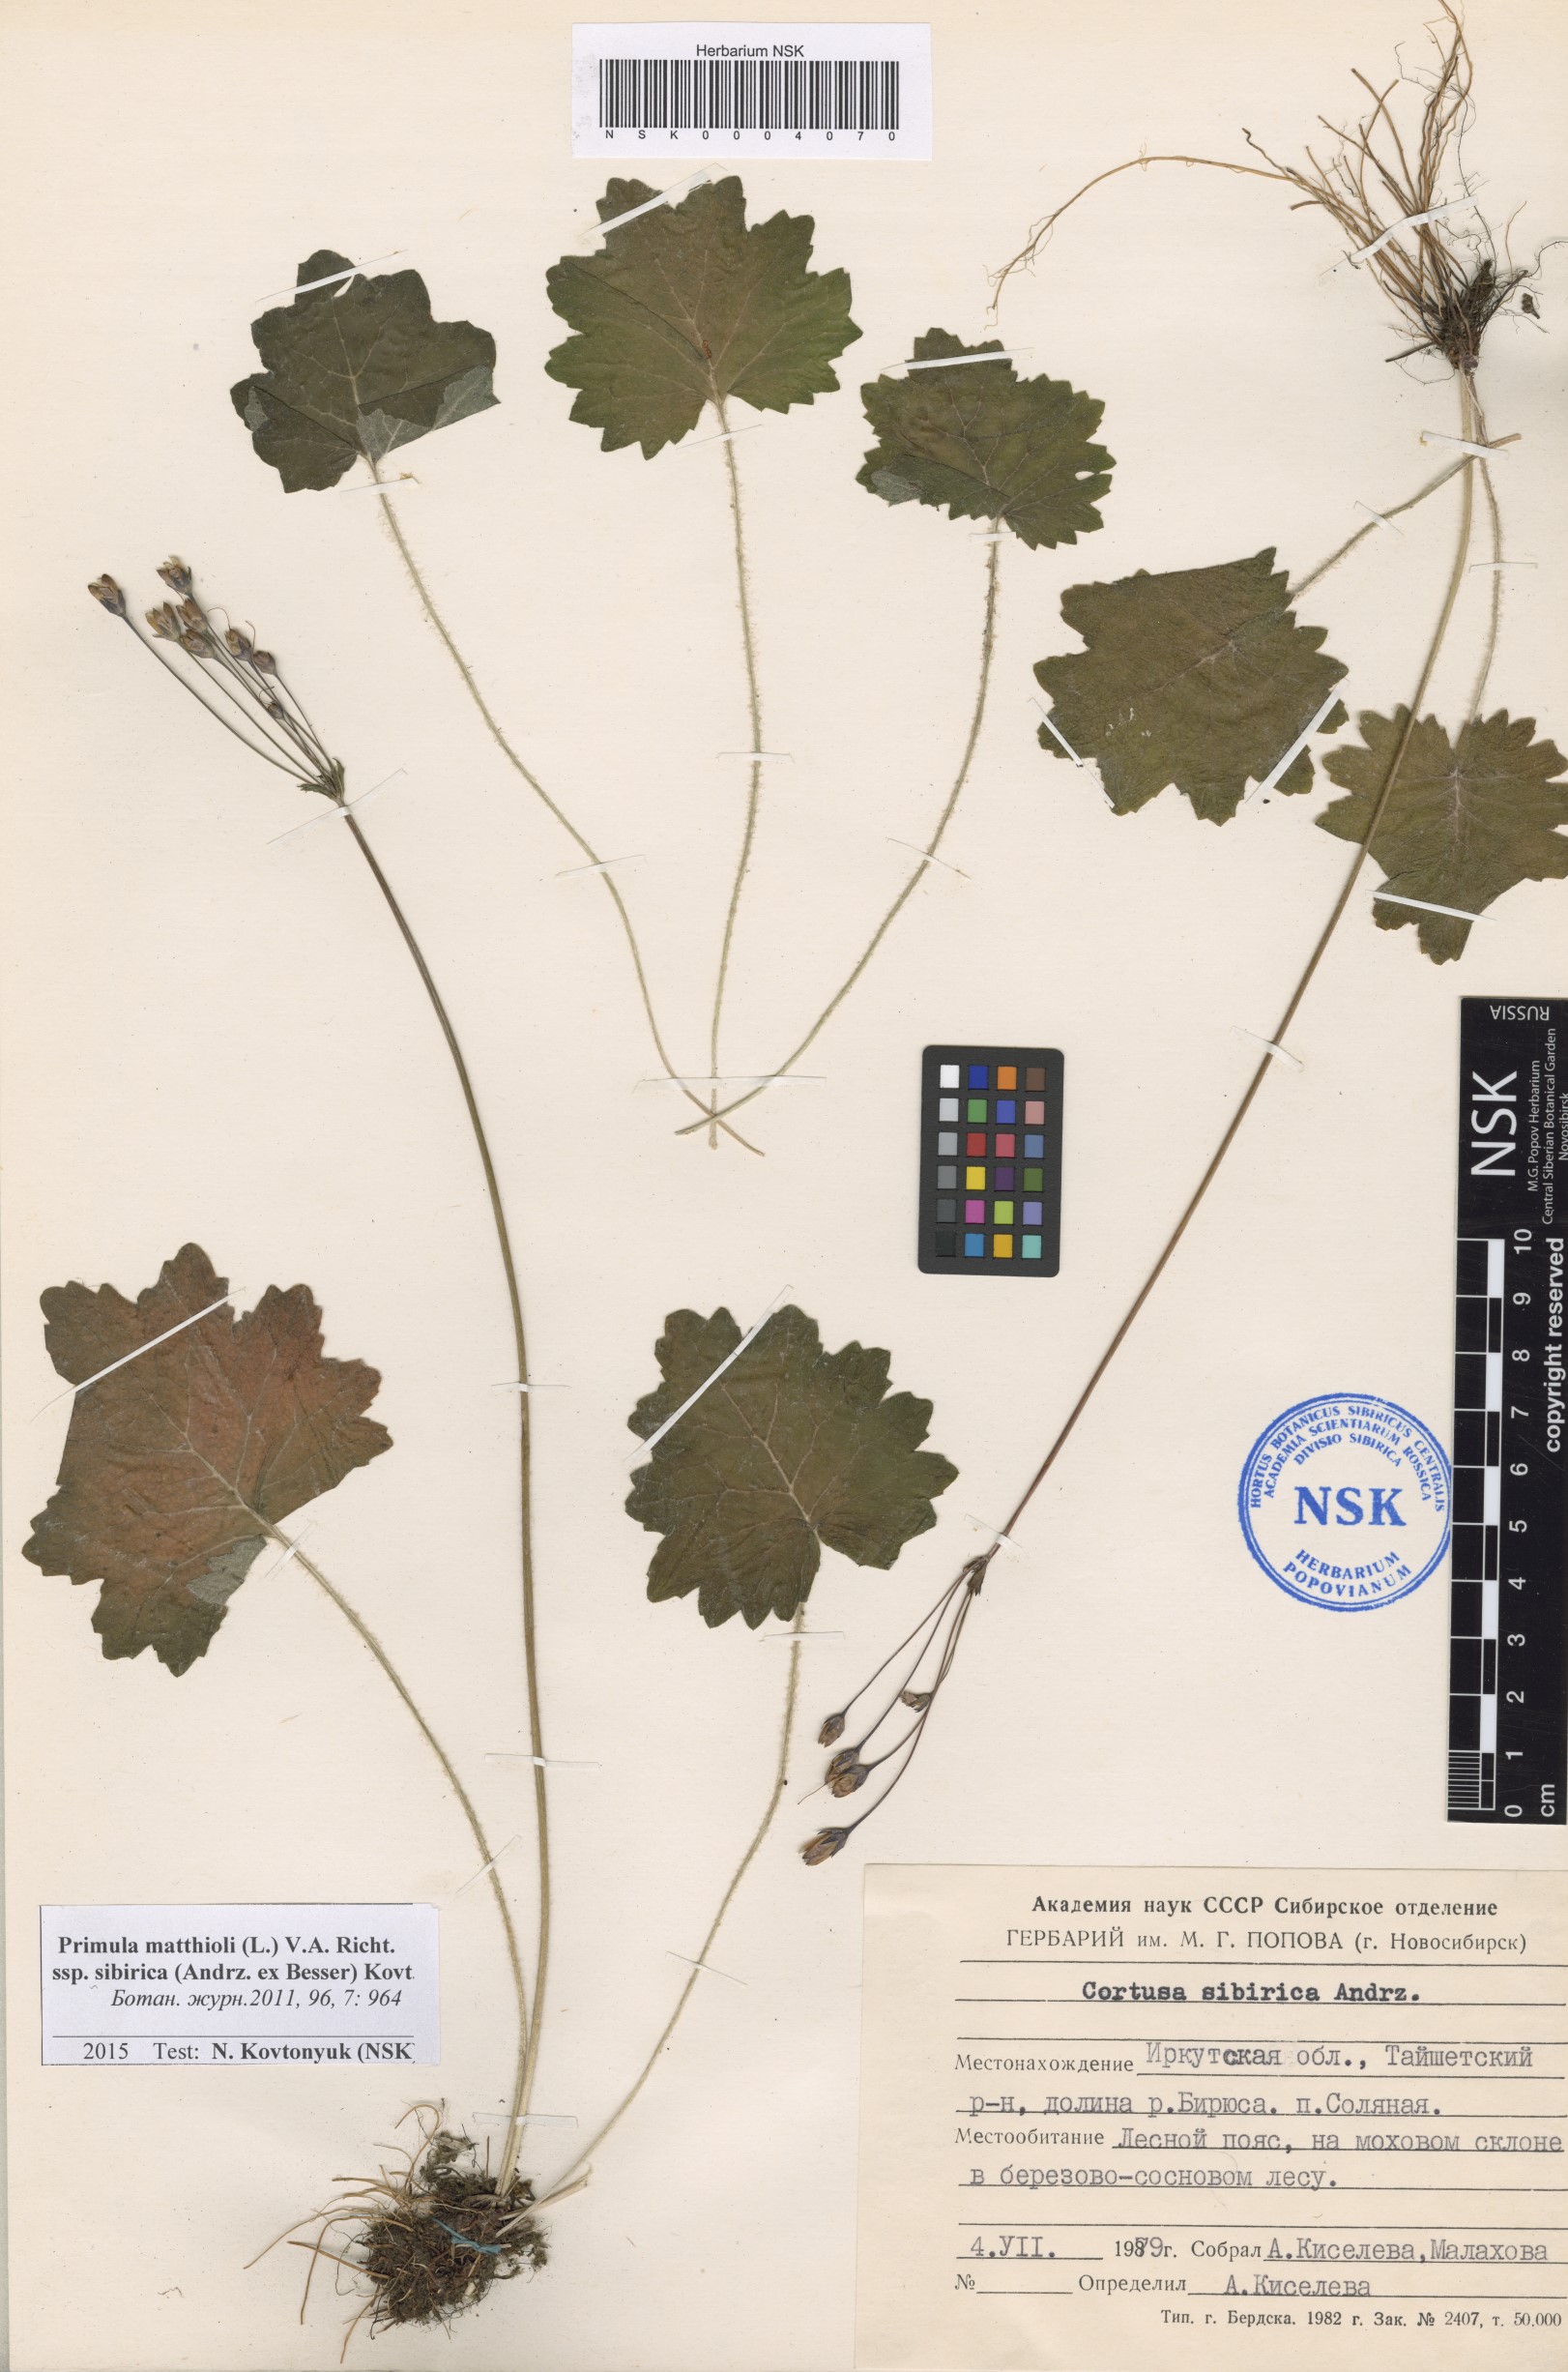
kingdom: Plantae
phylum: Tracheophyta
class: Magnoliopsida
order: Ericales
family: Primulaceae
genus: Primula
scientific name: Primula matthioli
